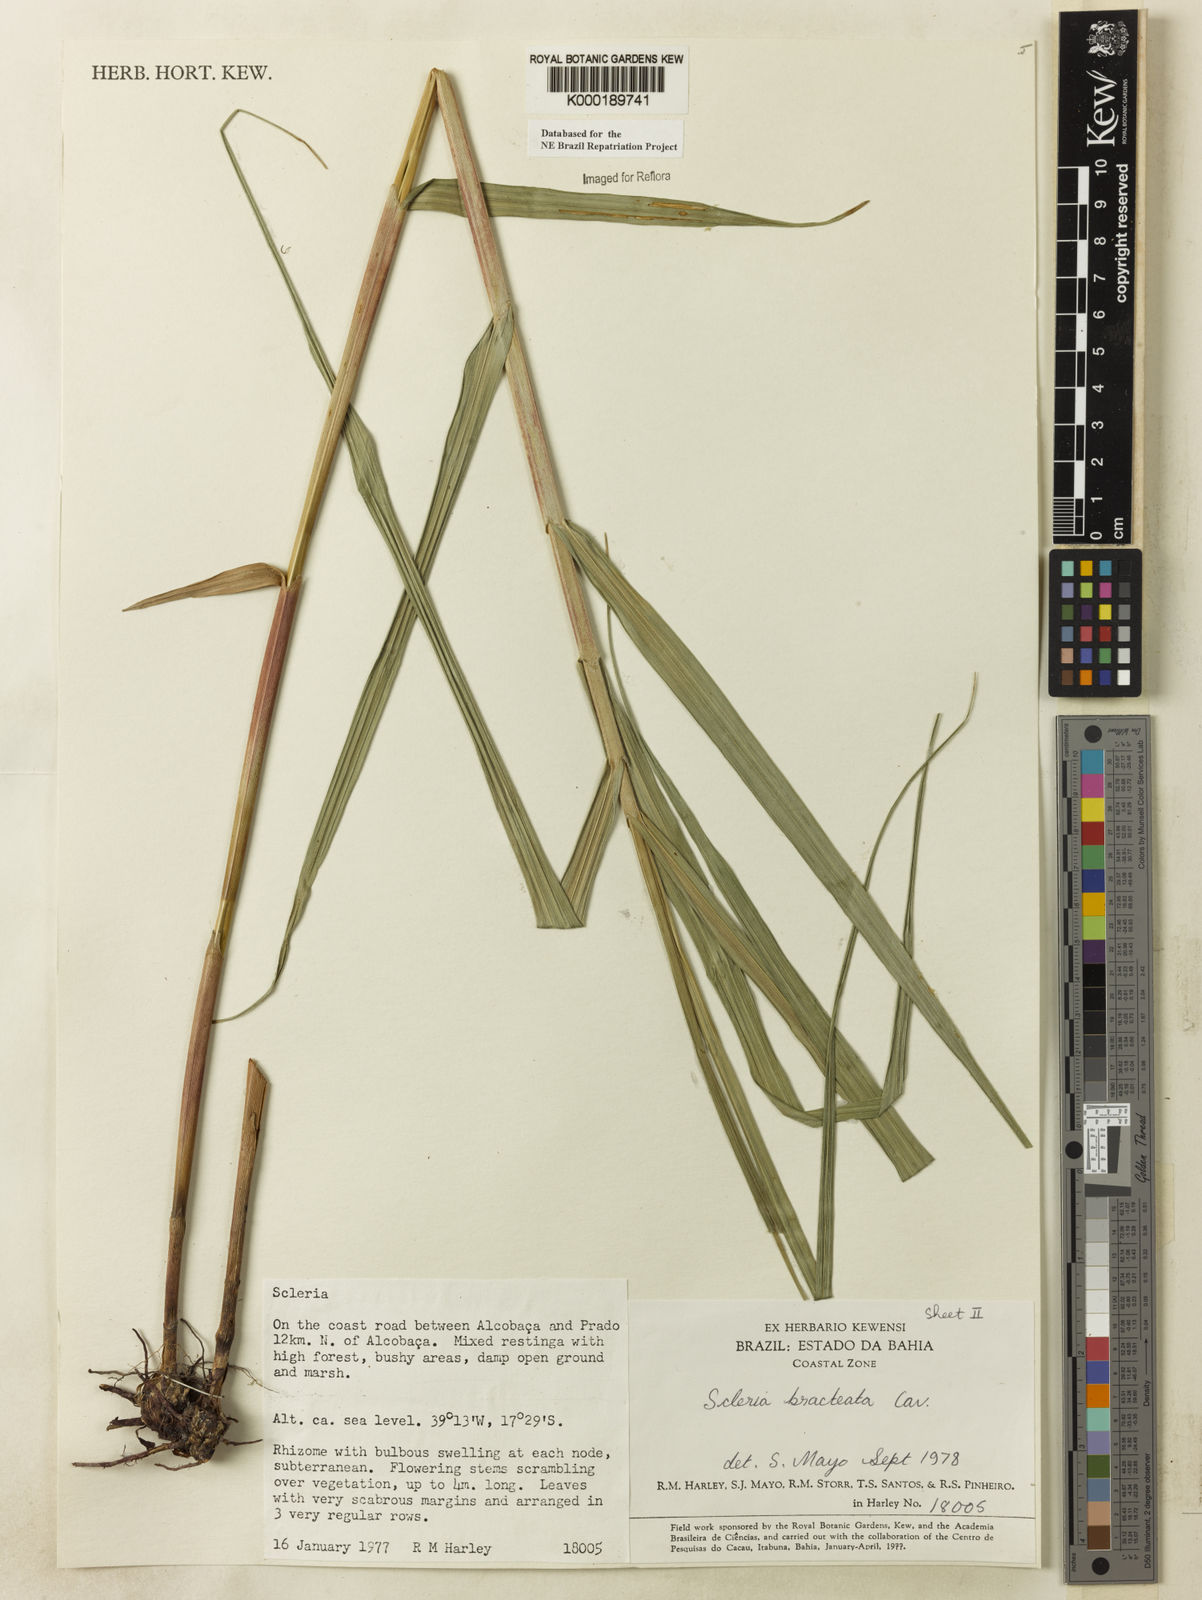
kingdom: Plantae
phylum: Tracheophyta
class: Liliopsida
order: Poales
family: Cyperaceae
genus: Scleria
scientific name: Scleria bracteata
